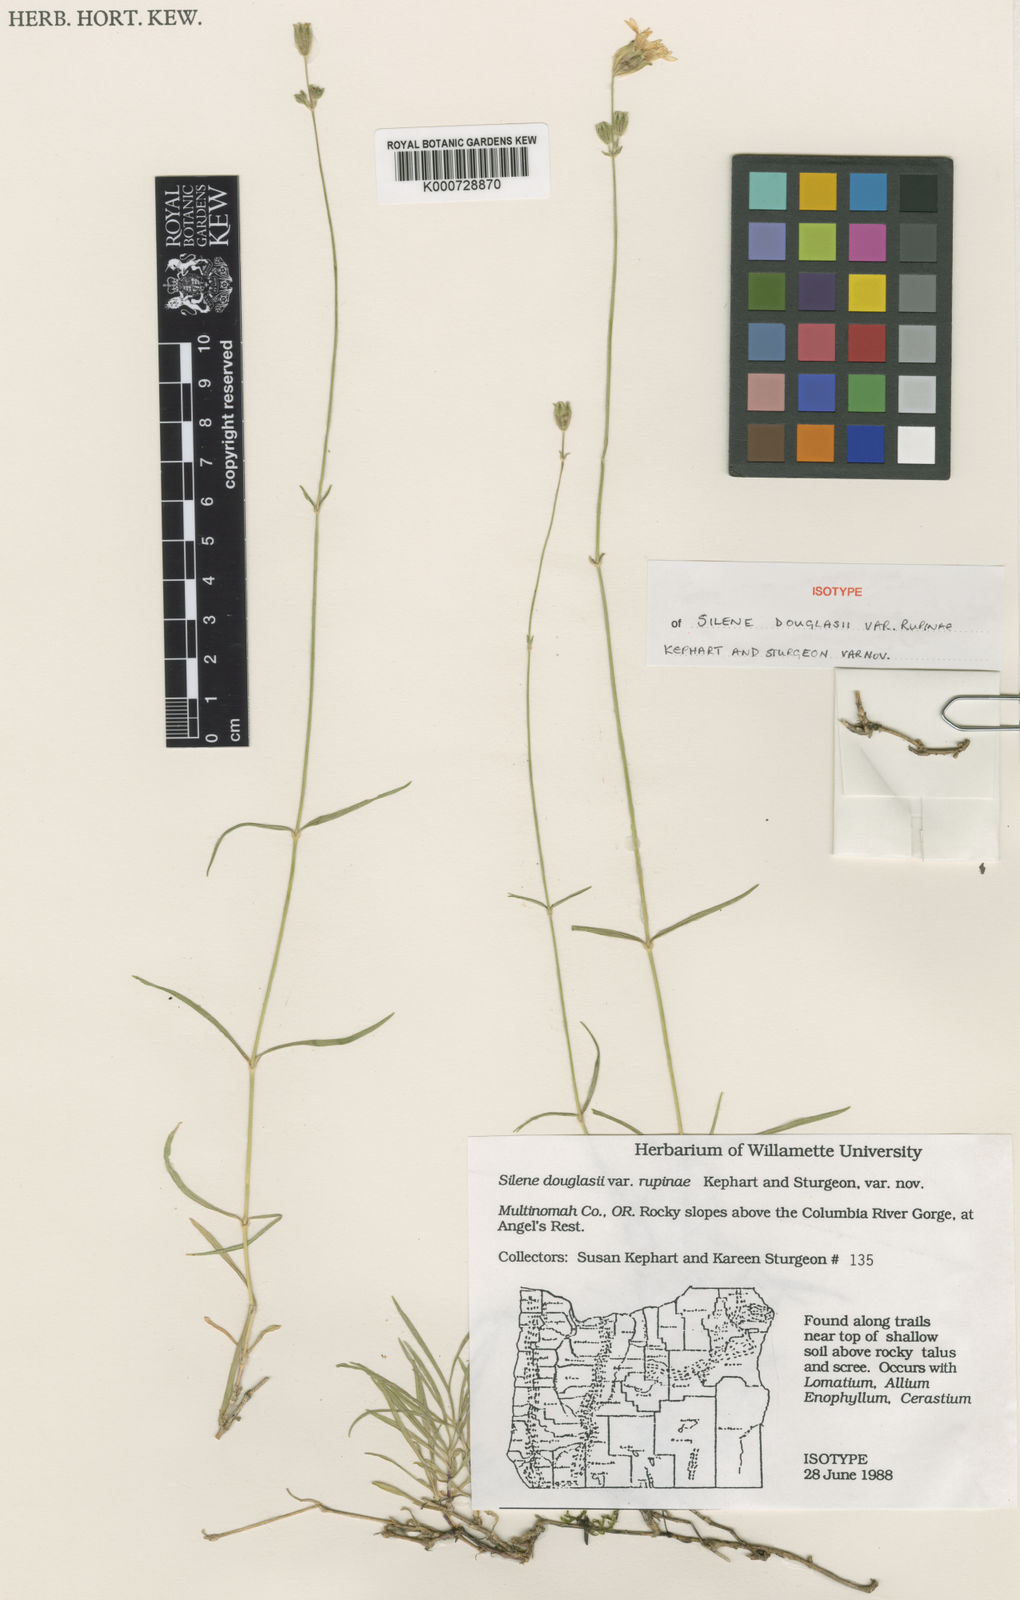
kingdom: Plantae
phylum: Tracheophyta
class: Magnoliopsida
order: Caryophyllales
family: Caryophyllaceae
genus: Silene
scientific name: Silene douglasii
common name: Douglas's catchfly
